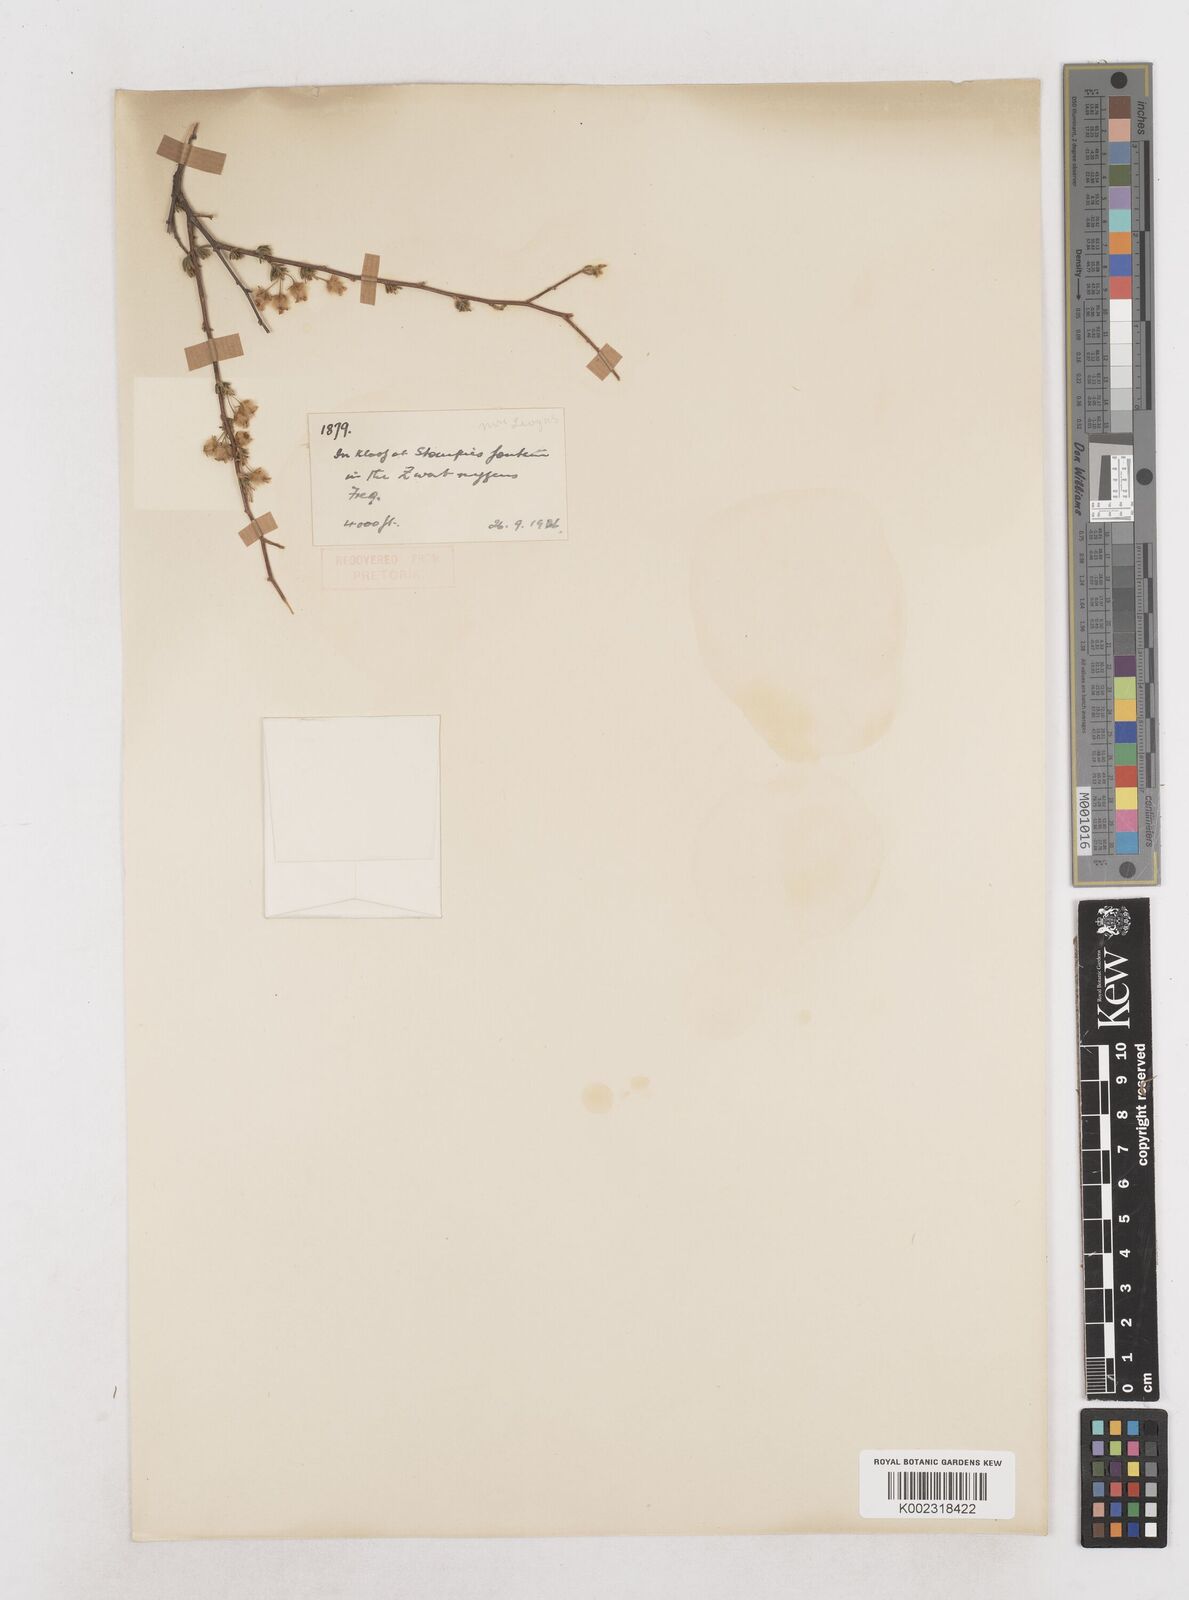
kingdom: Plantae
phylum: Tracheophyta
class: Magnoliopsida
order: Asterales
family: Asteraceae
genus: Eriocephalus
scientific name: Eriocephalus
